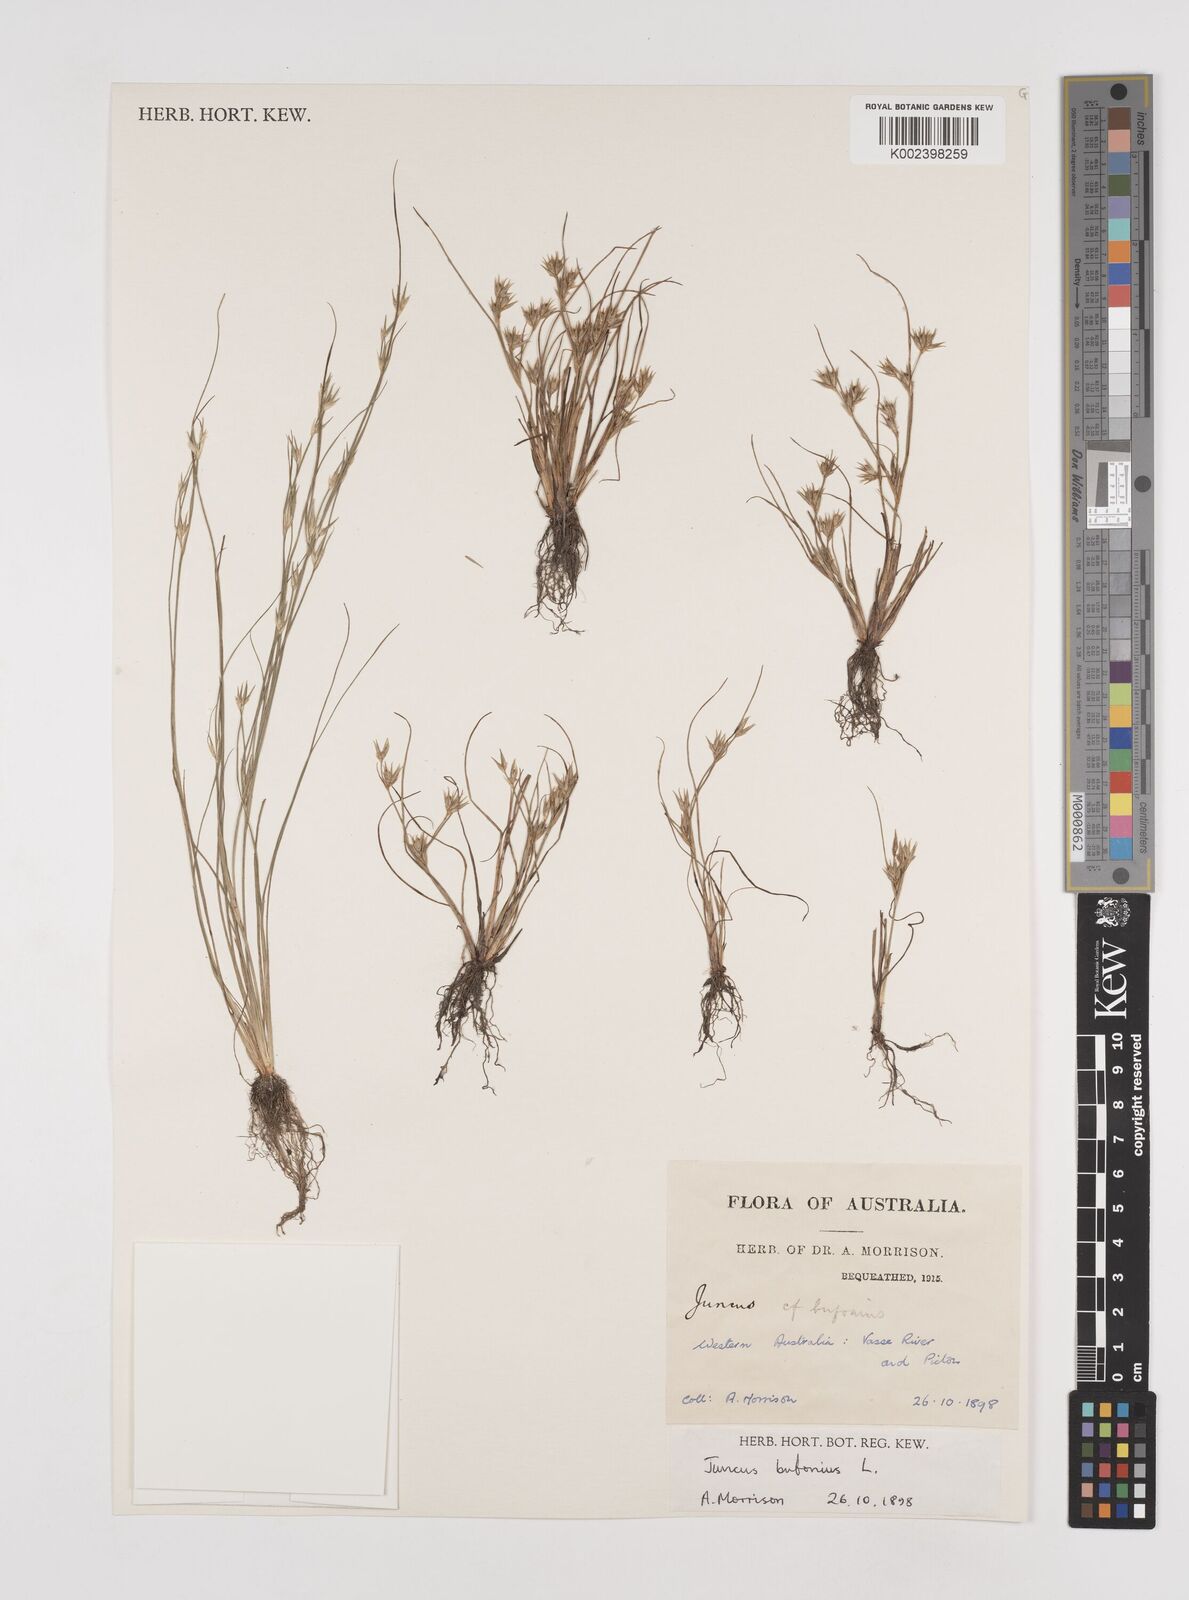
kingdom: Plantae
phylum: Tracheophyta
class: Liliopsida
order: Poales
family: Juncaceae
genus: Juncus
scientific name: Juncus bufonius
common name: Toad rush
